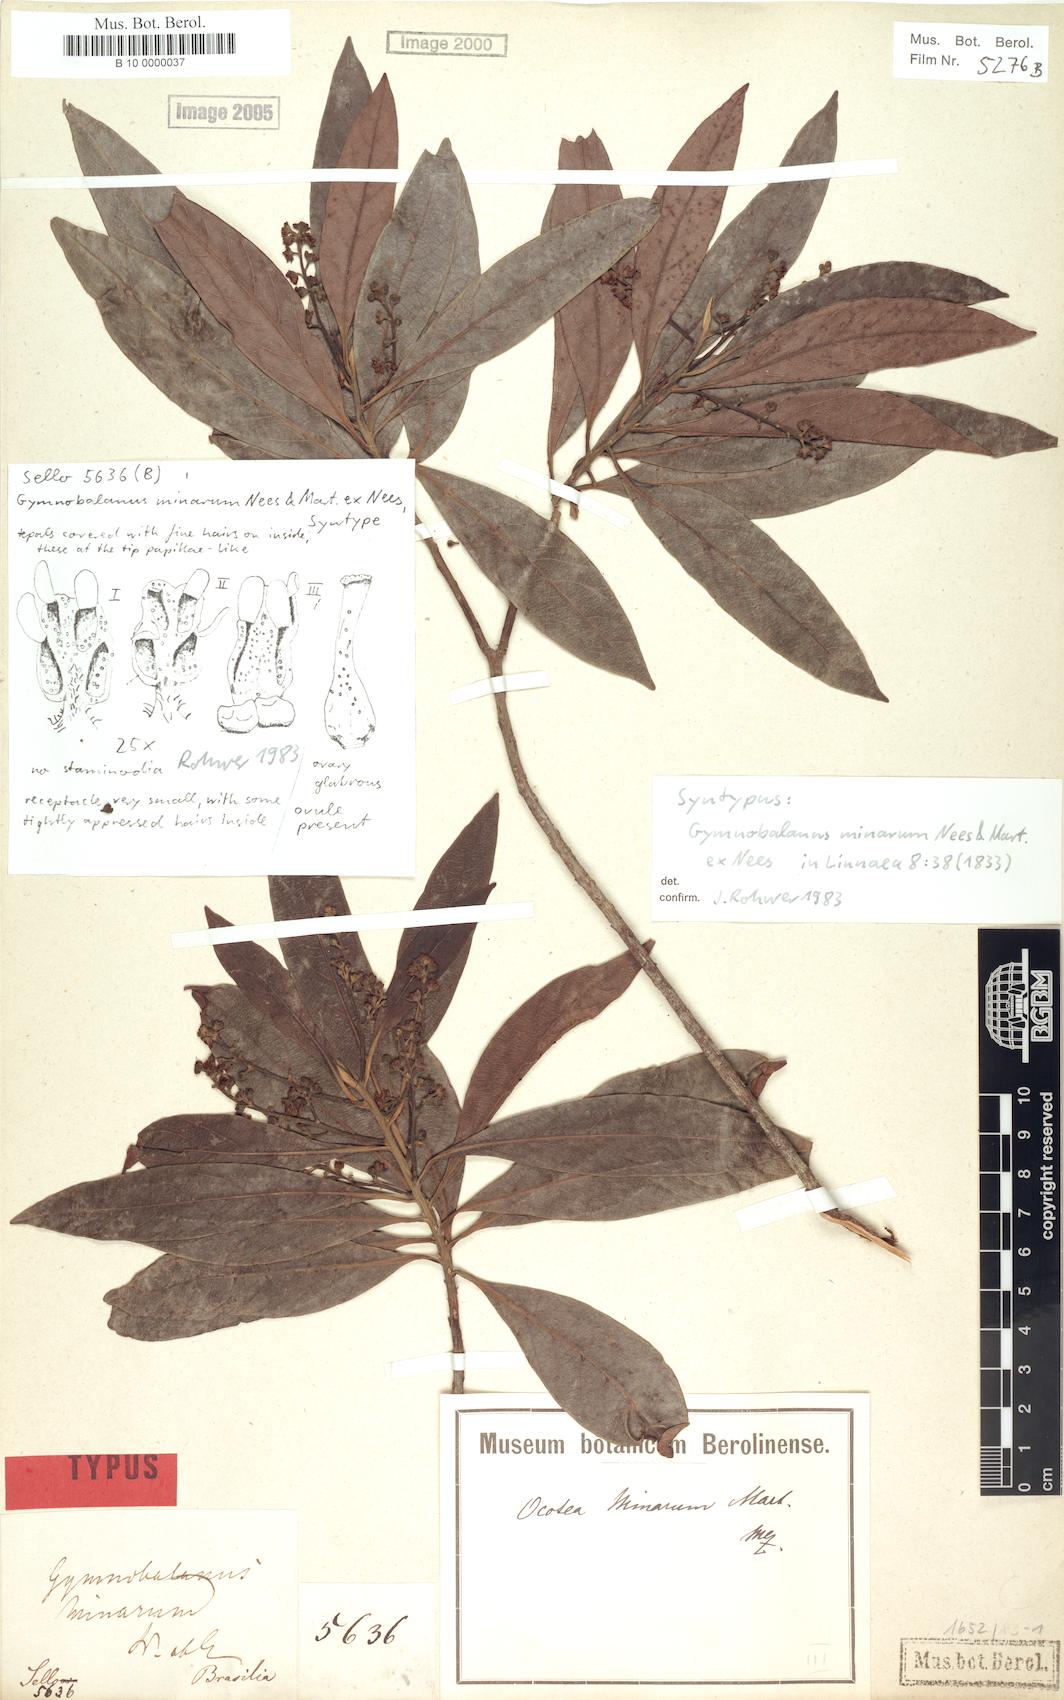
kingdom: Plantae
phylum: Tracheophyta
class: Magnoliopsida
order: Laurales
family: Lauraceae
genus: Ocotea
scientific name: Ocotea minarum
